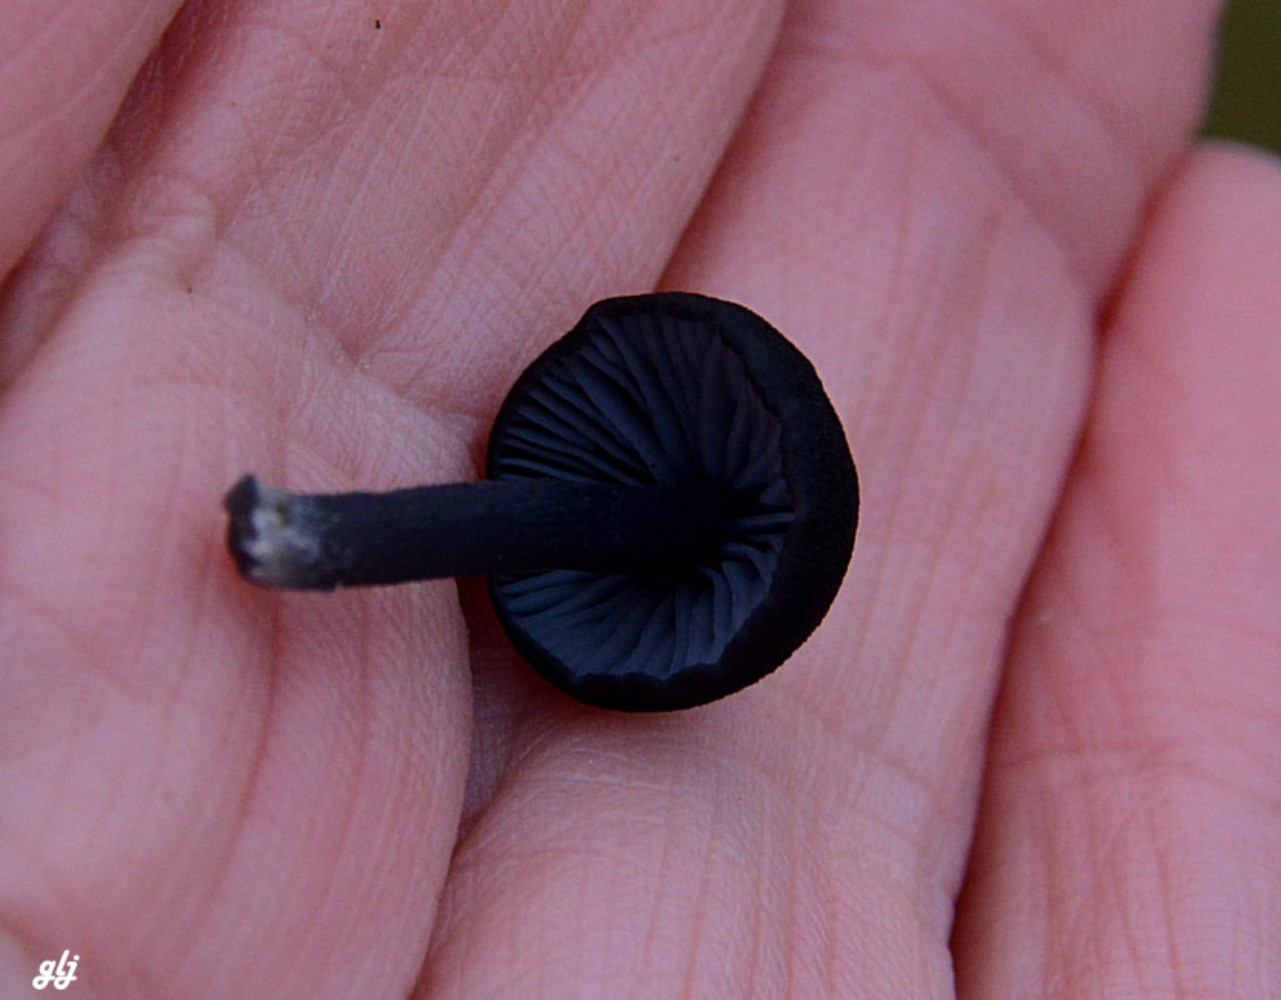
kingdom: Fungi
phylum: Basidiomycota
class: Agaricomycetes
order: Agaricales
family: Entolomataceae
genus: Entoloma
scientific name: Entoloma chalybeum
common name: blåbladet rødblad
